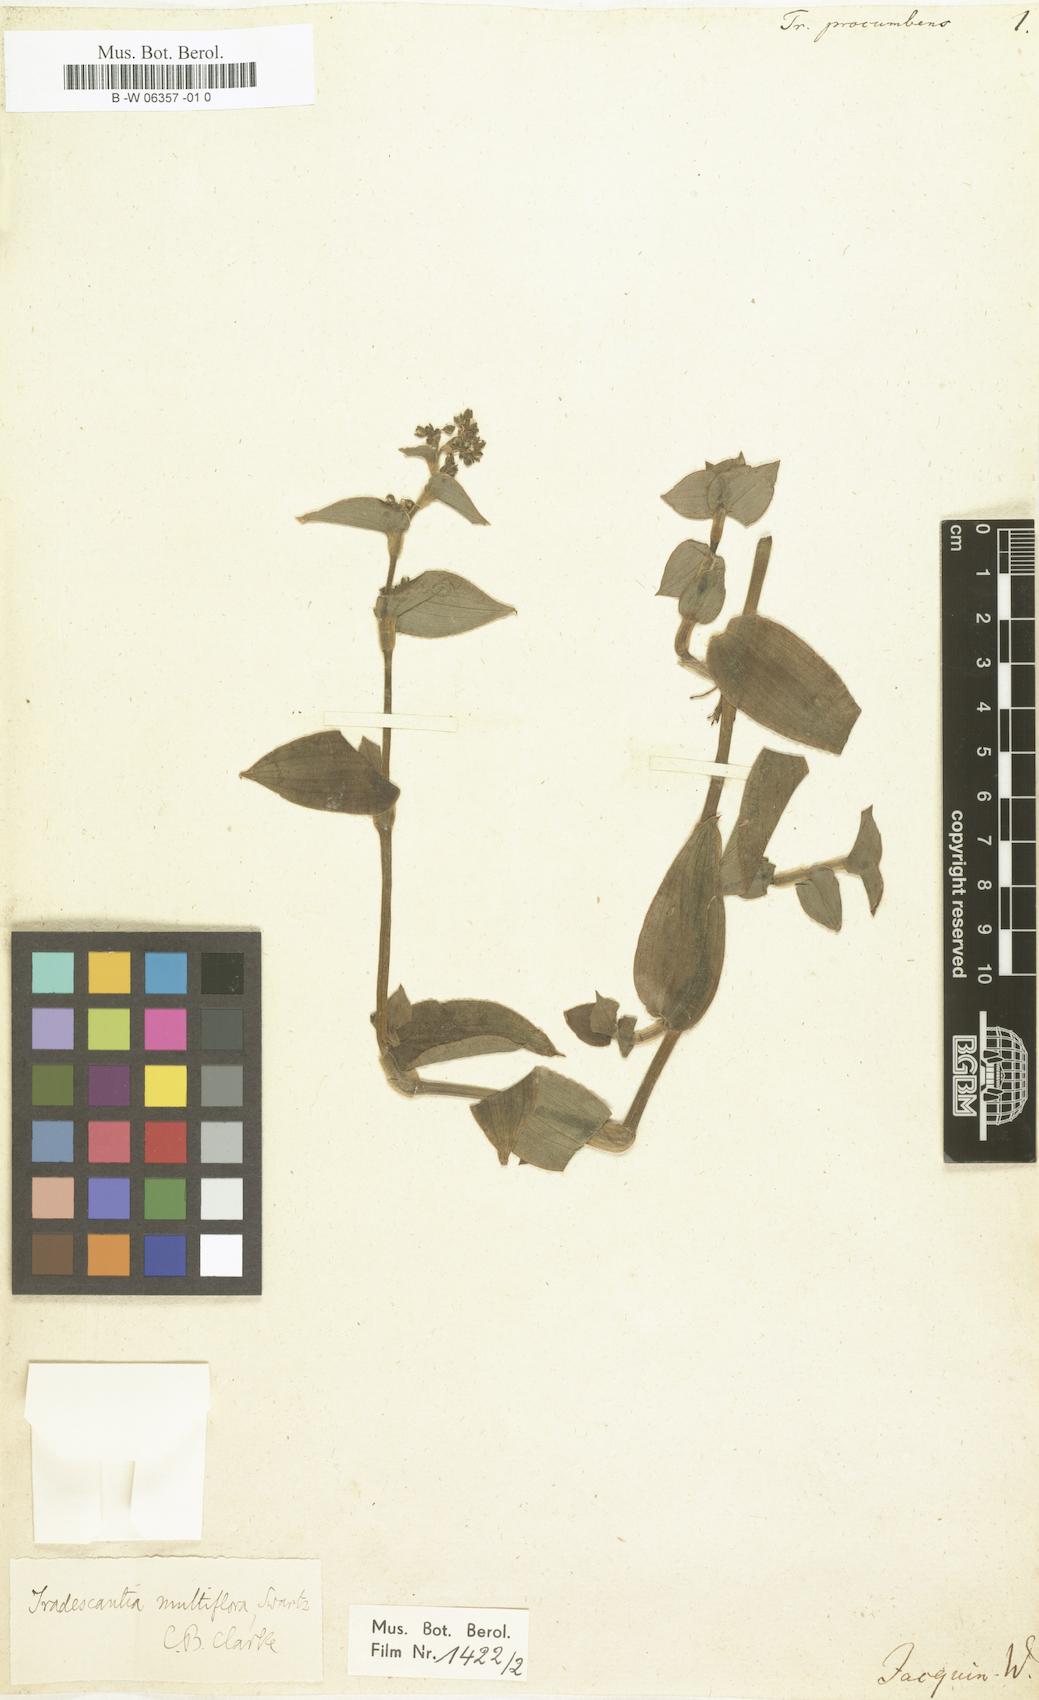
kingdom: Plantae
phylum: Tracheophyta
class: Liliopsida
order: Commelinales
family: Commelinaceae
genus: Callisia
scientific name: Callisia procumbens
